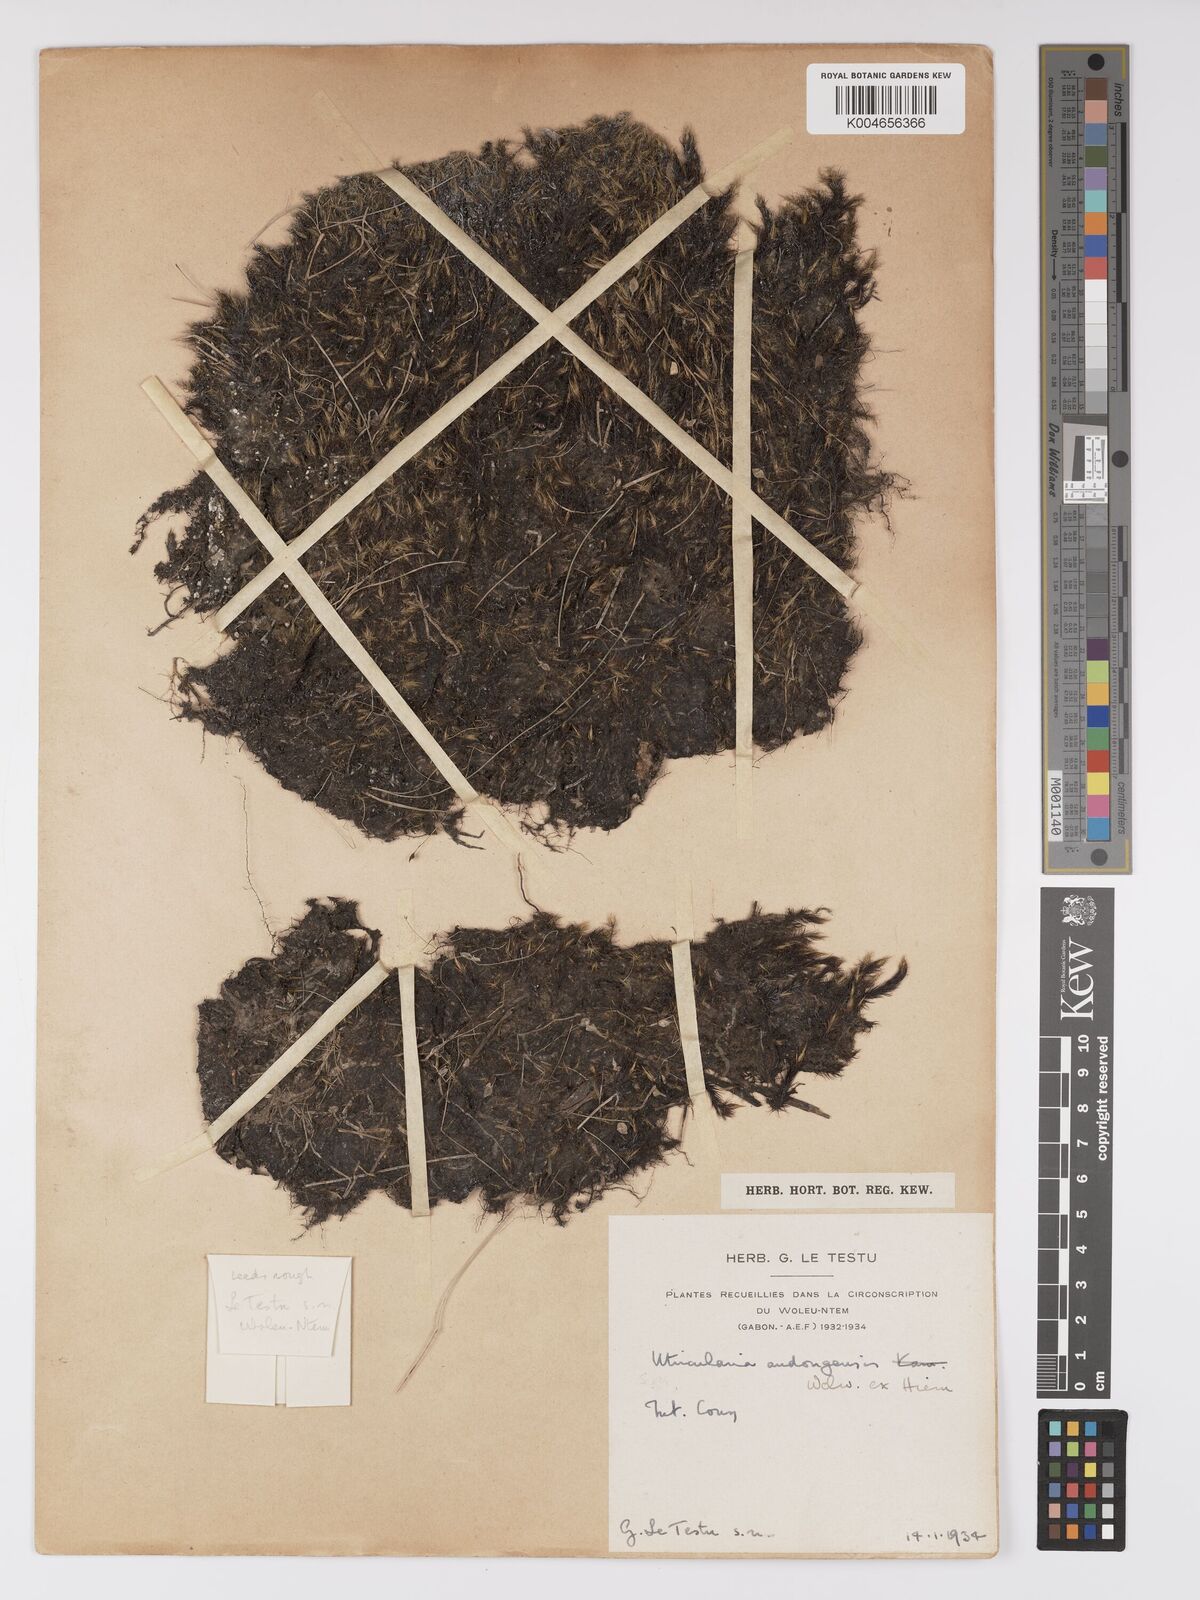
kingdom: Plantae
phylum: Tracheophyta
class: Magnoliopsida
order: Lamiales
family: Lentibulariaceae
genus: Utricularia
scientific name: Utricularia andongensis
